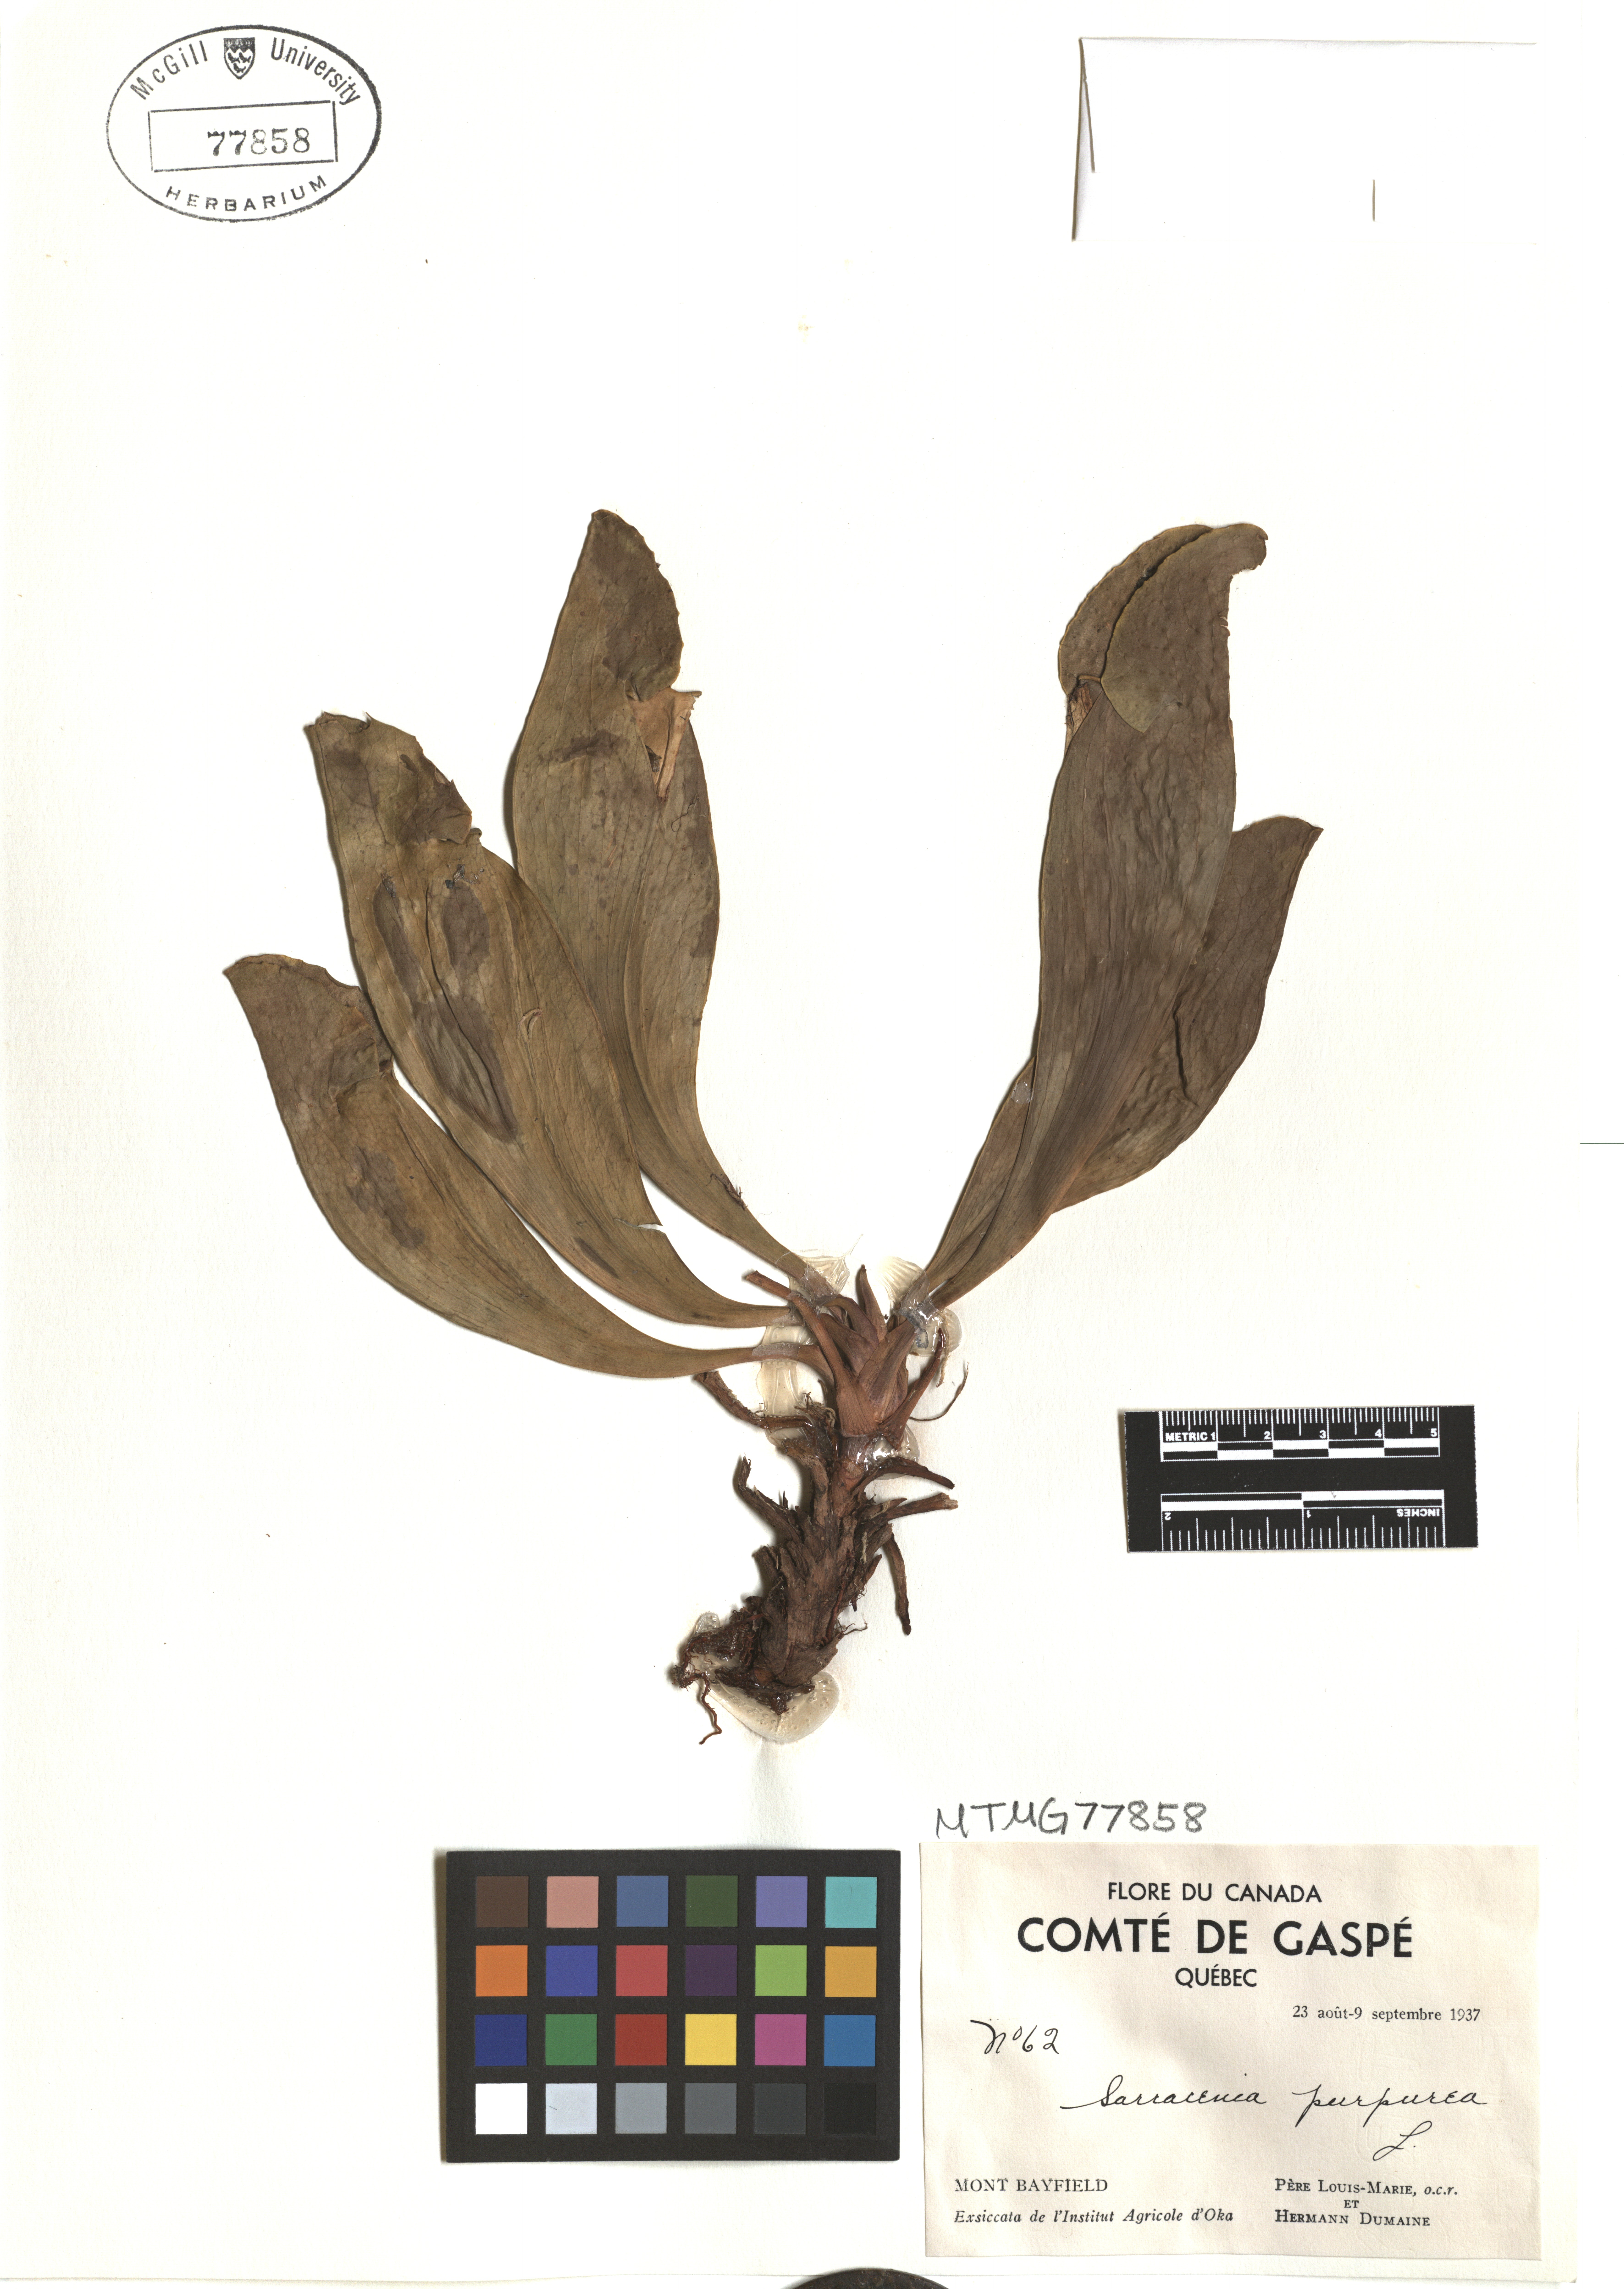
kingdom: Plantae
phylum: Tracheophyta
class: Magnoliopsida
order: Ericales
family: Sarraceniaceae
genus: Sarracenia
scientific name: Sarracenia purpurea
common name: Pitcherplant
